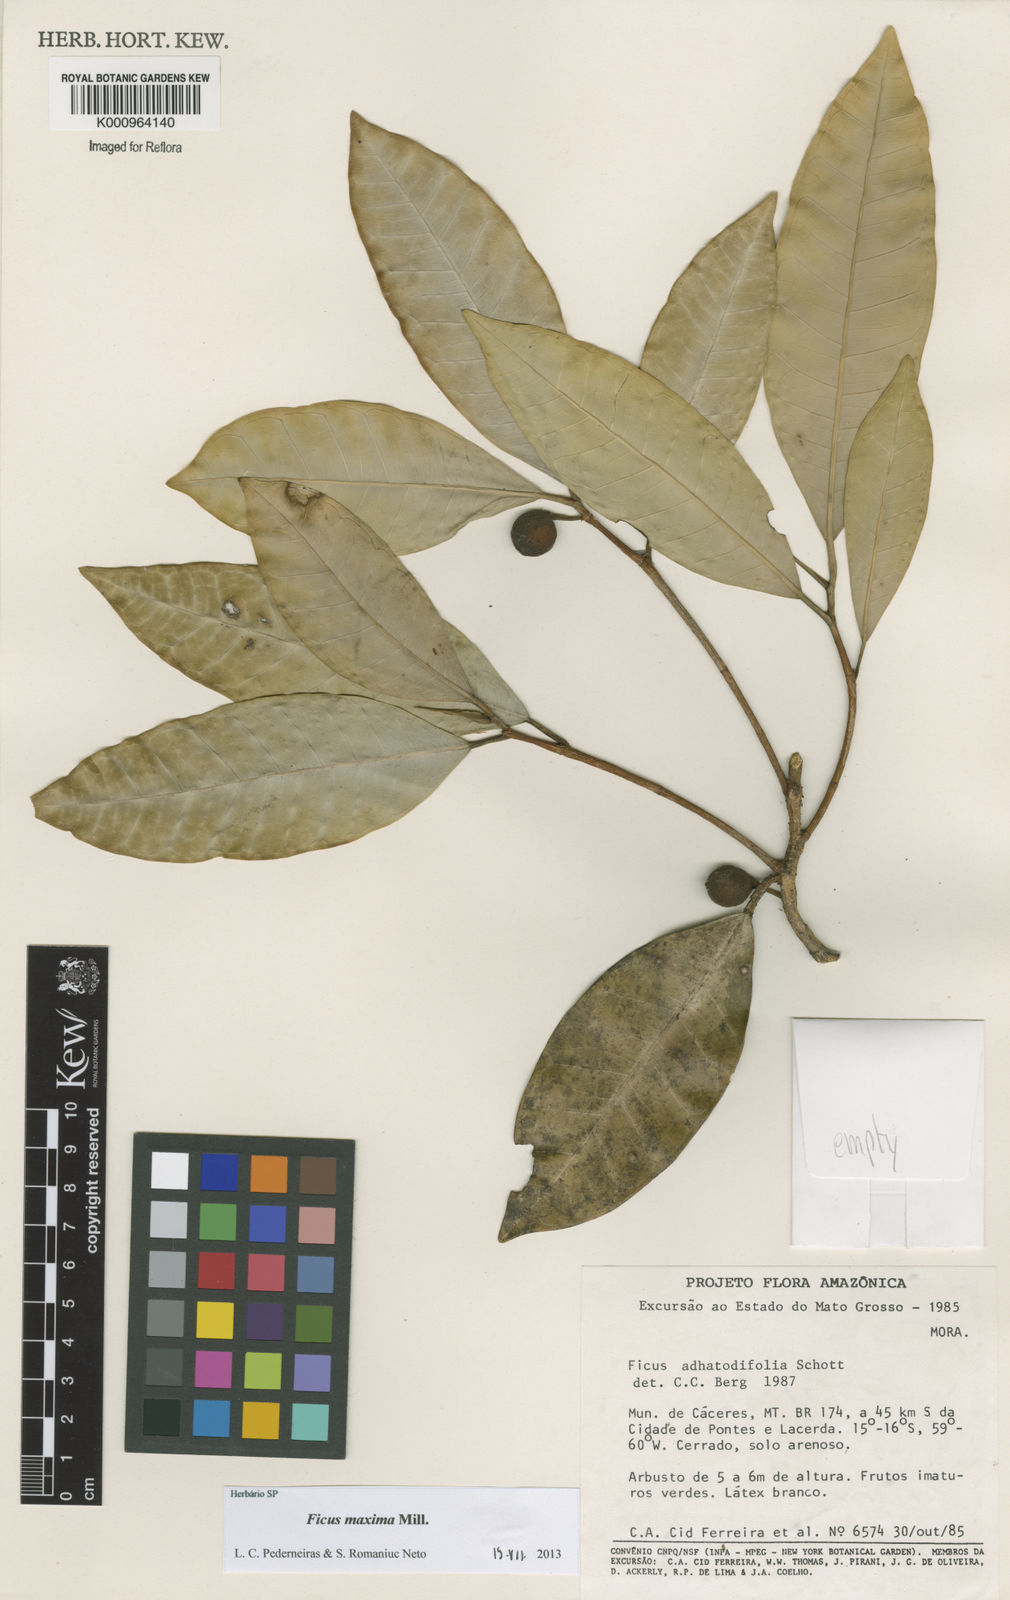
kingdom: Plantae
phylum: Tracheophyta
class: Magnoliopsida
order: Rosales
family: Moraceae
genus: Ficus
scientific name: Ficus maxima
